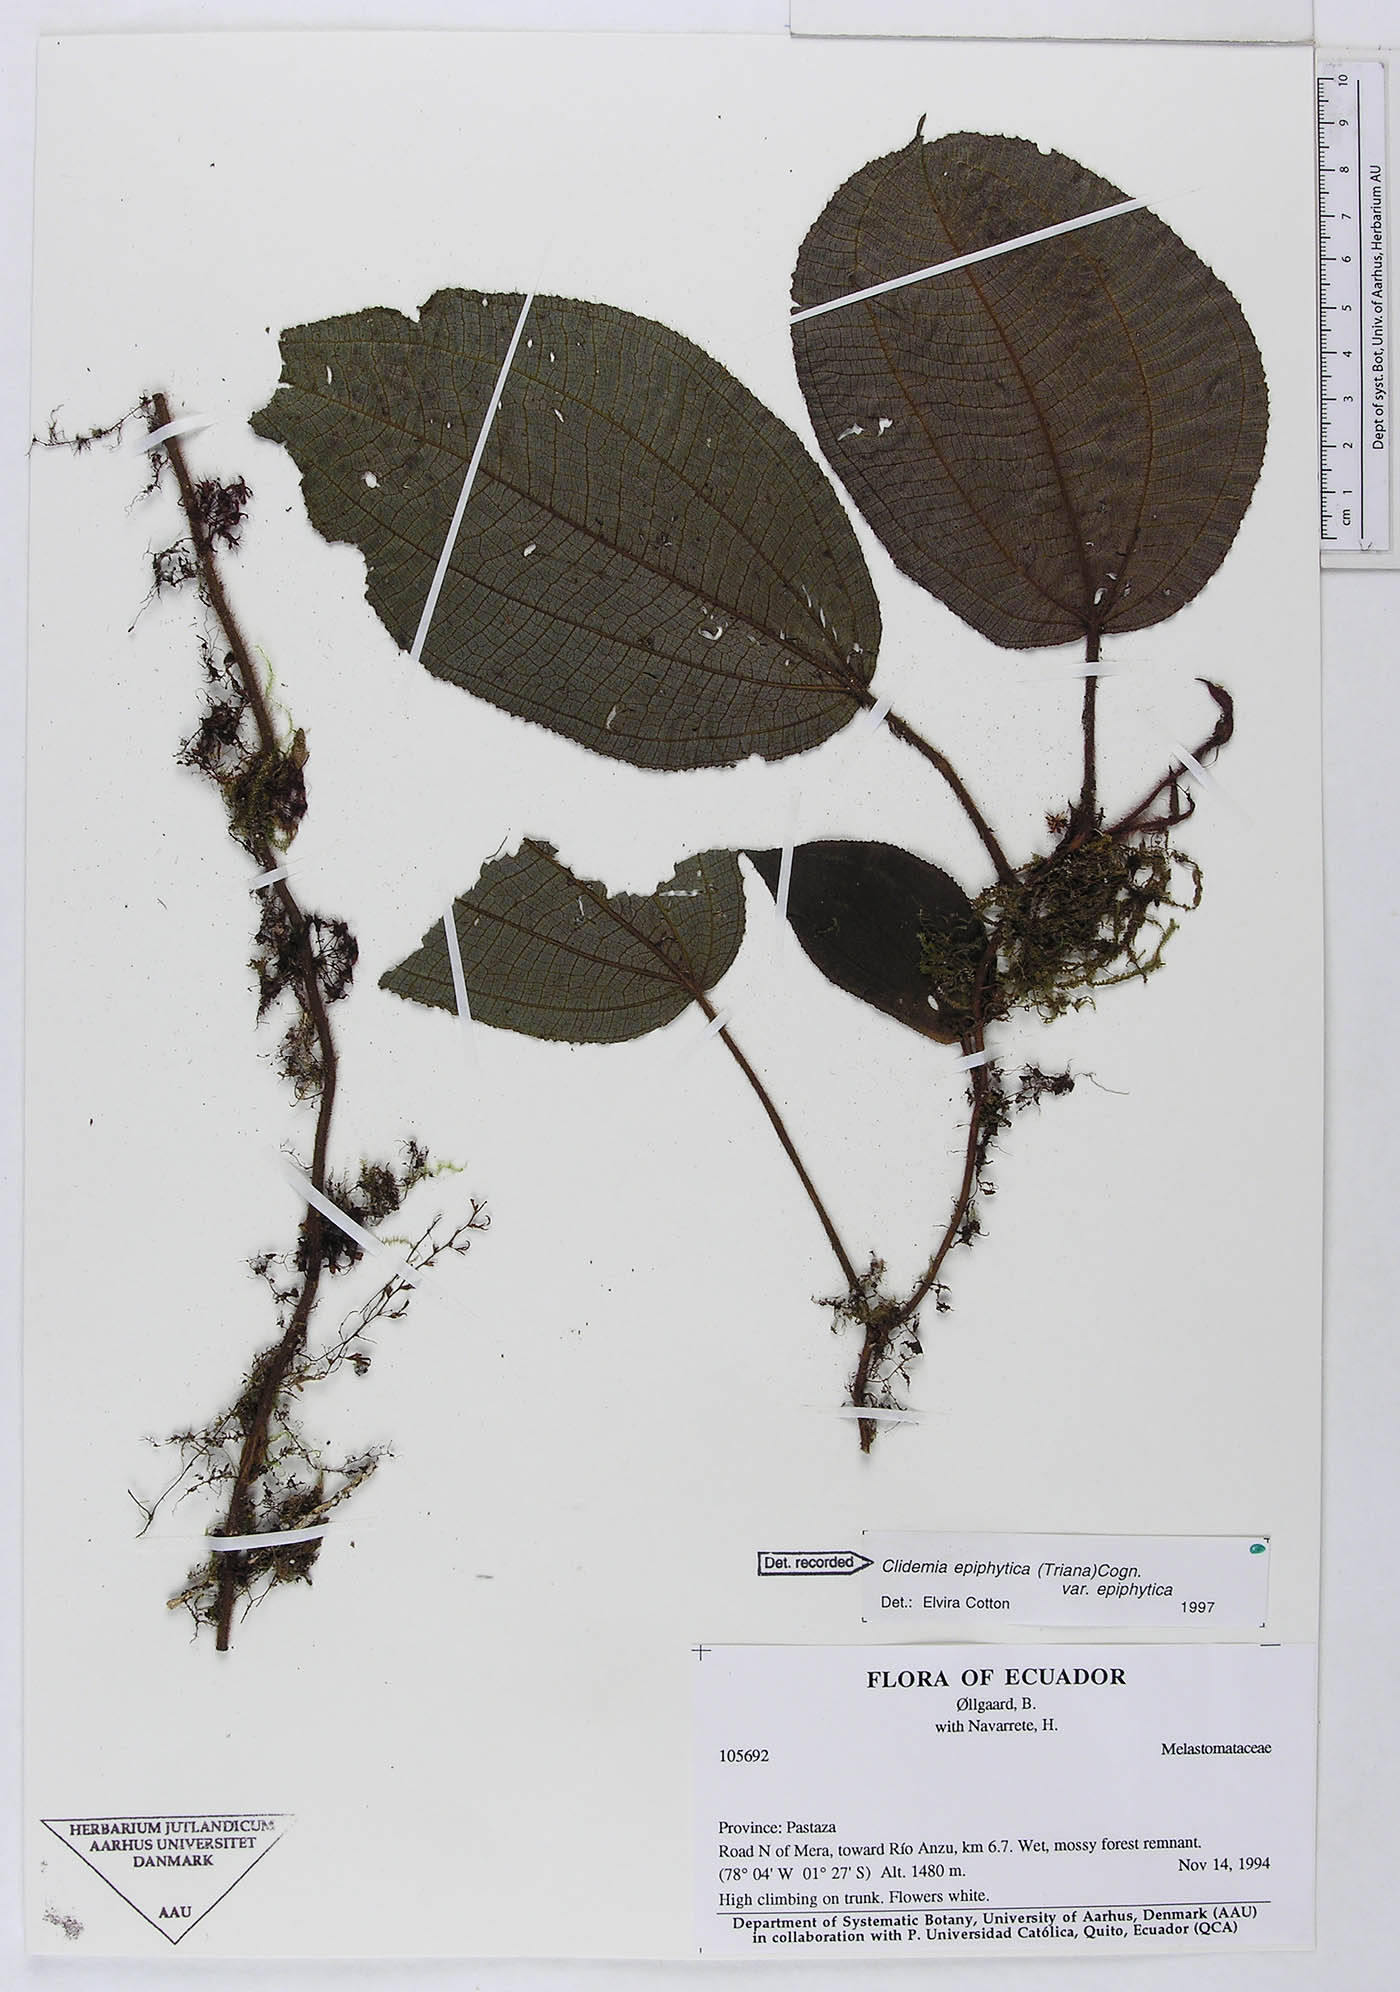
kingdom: Plantae
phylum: Tracheophyta
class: Magnoliopsida
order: Myrtales
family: Melastomataceae
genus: Miconia
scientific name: Miconia neoepiphytica
